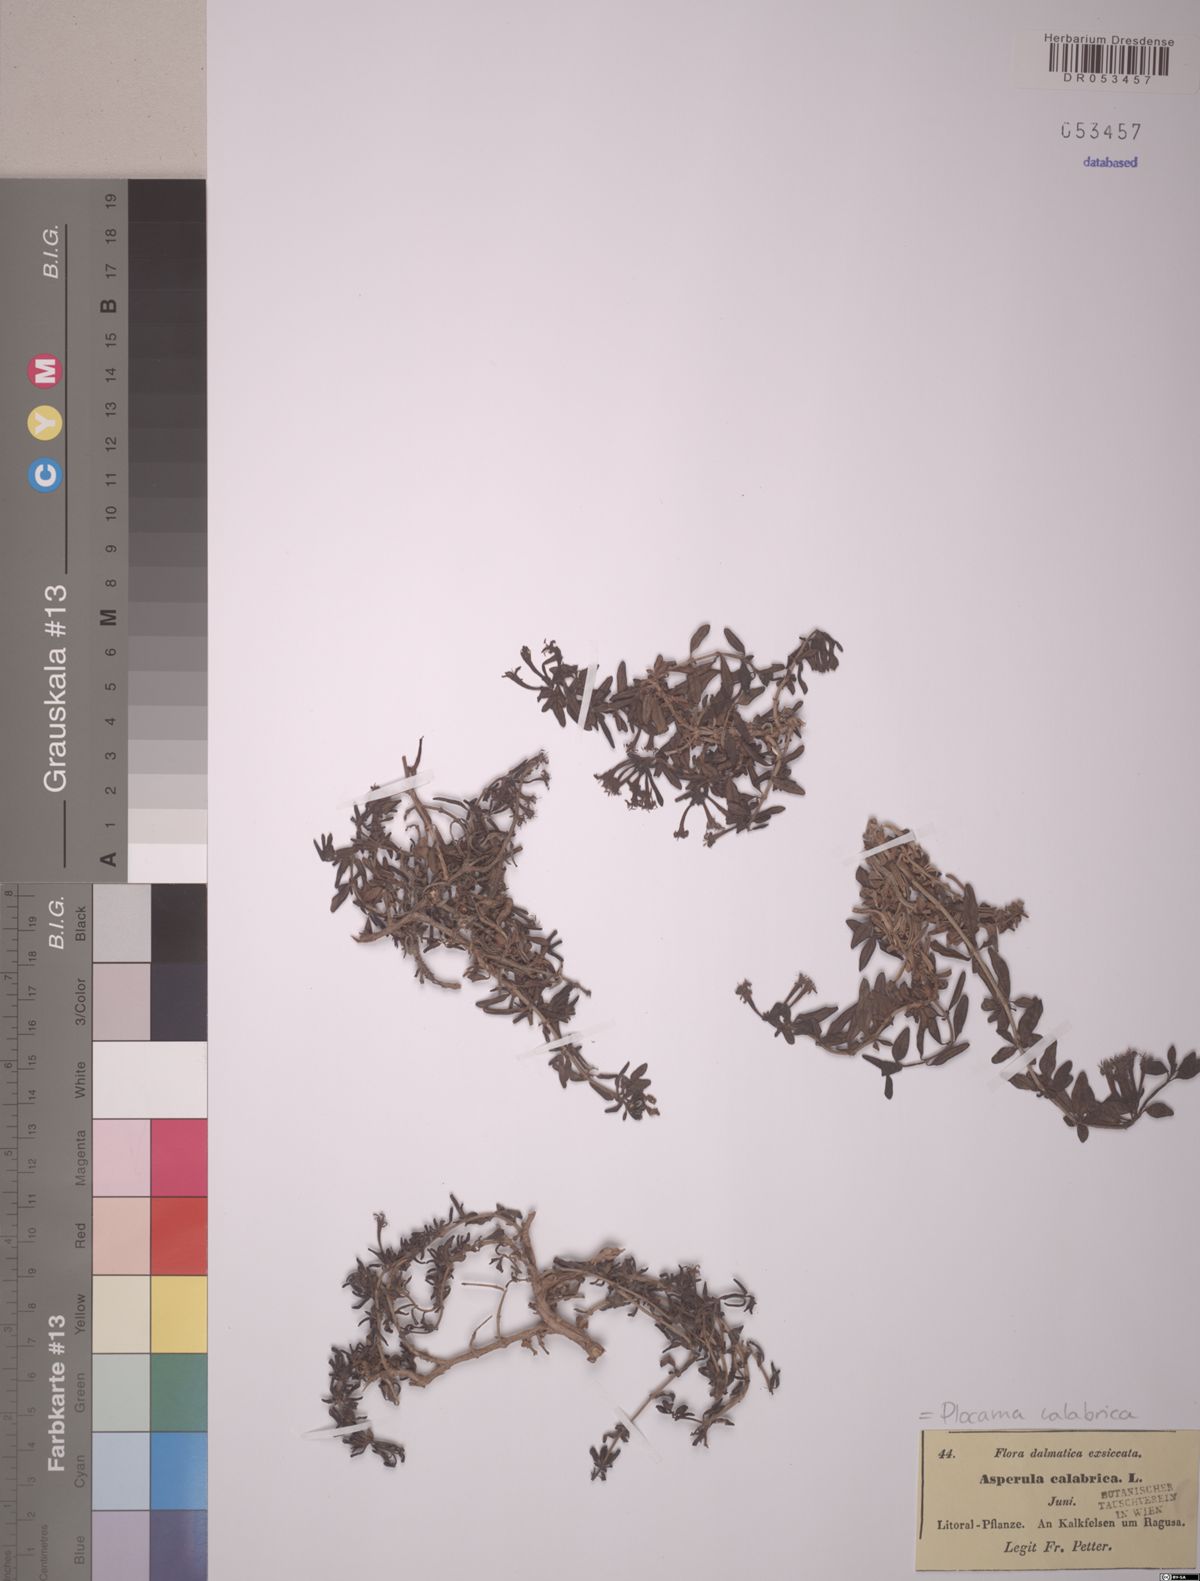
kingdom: Plantae
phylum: Tracheophyta
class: Magnoliopsida
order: Gentianales
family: Rubiaceae
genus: Plocama
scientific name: Plocama calabrica
